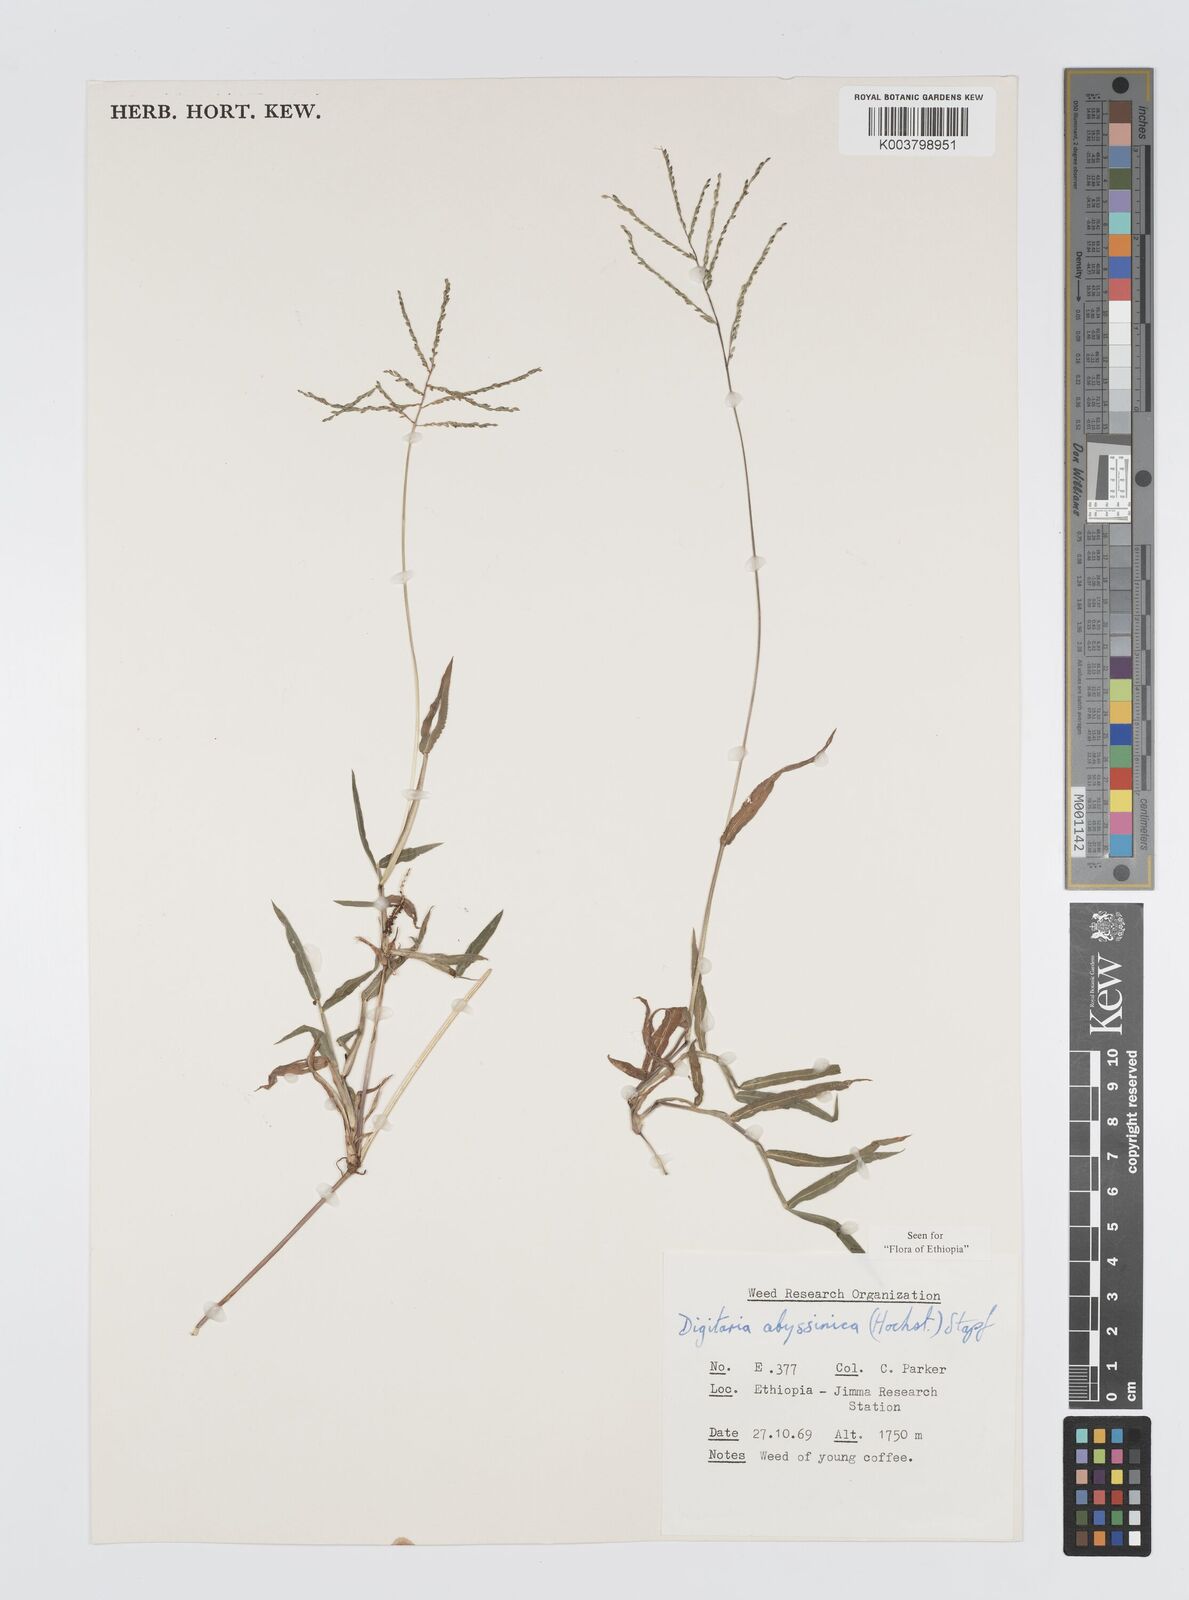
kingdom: Plantae
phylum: Tracheophyta
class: Liliopsida
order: Poales
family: Poaceae
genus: Digitaria
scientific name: Digitaria abyssinica
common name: African couchgrass
